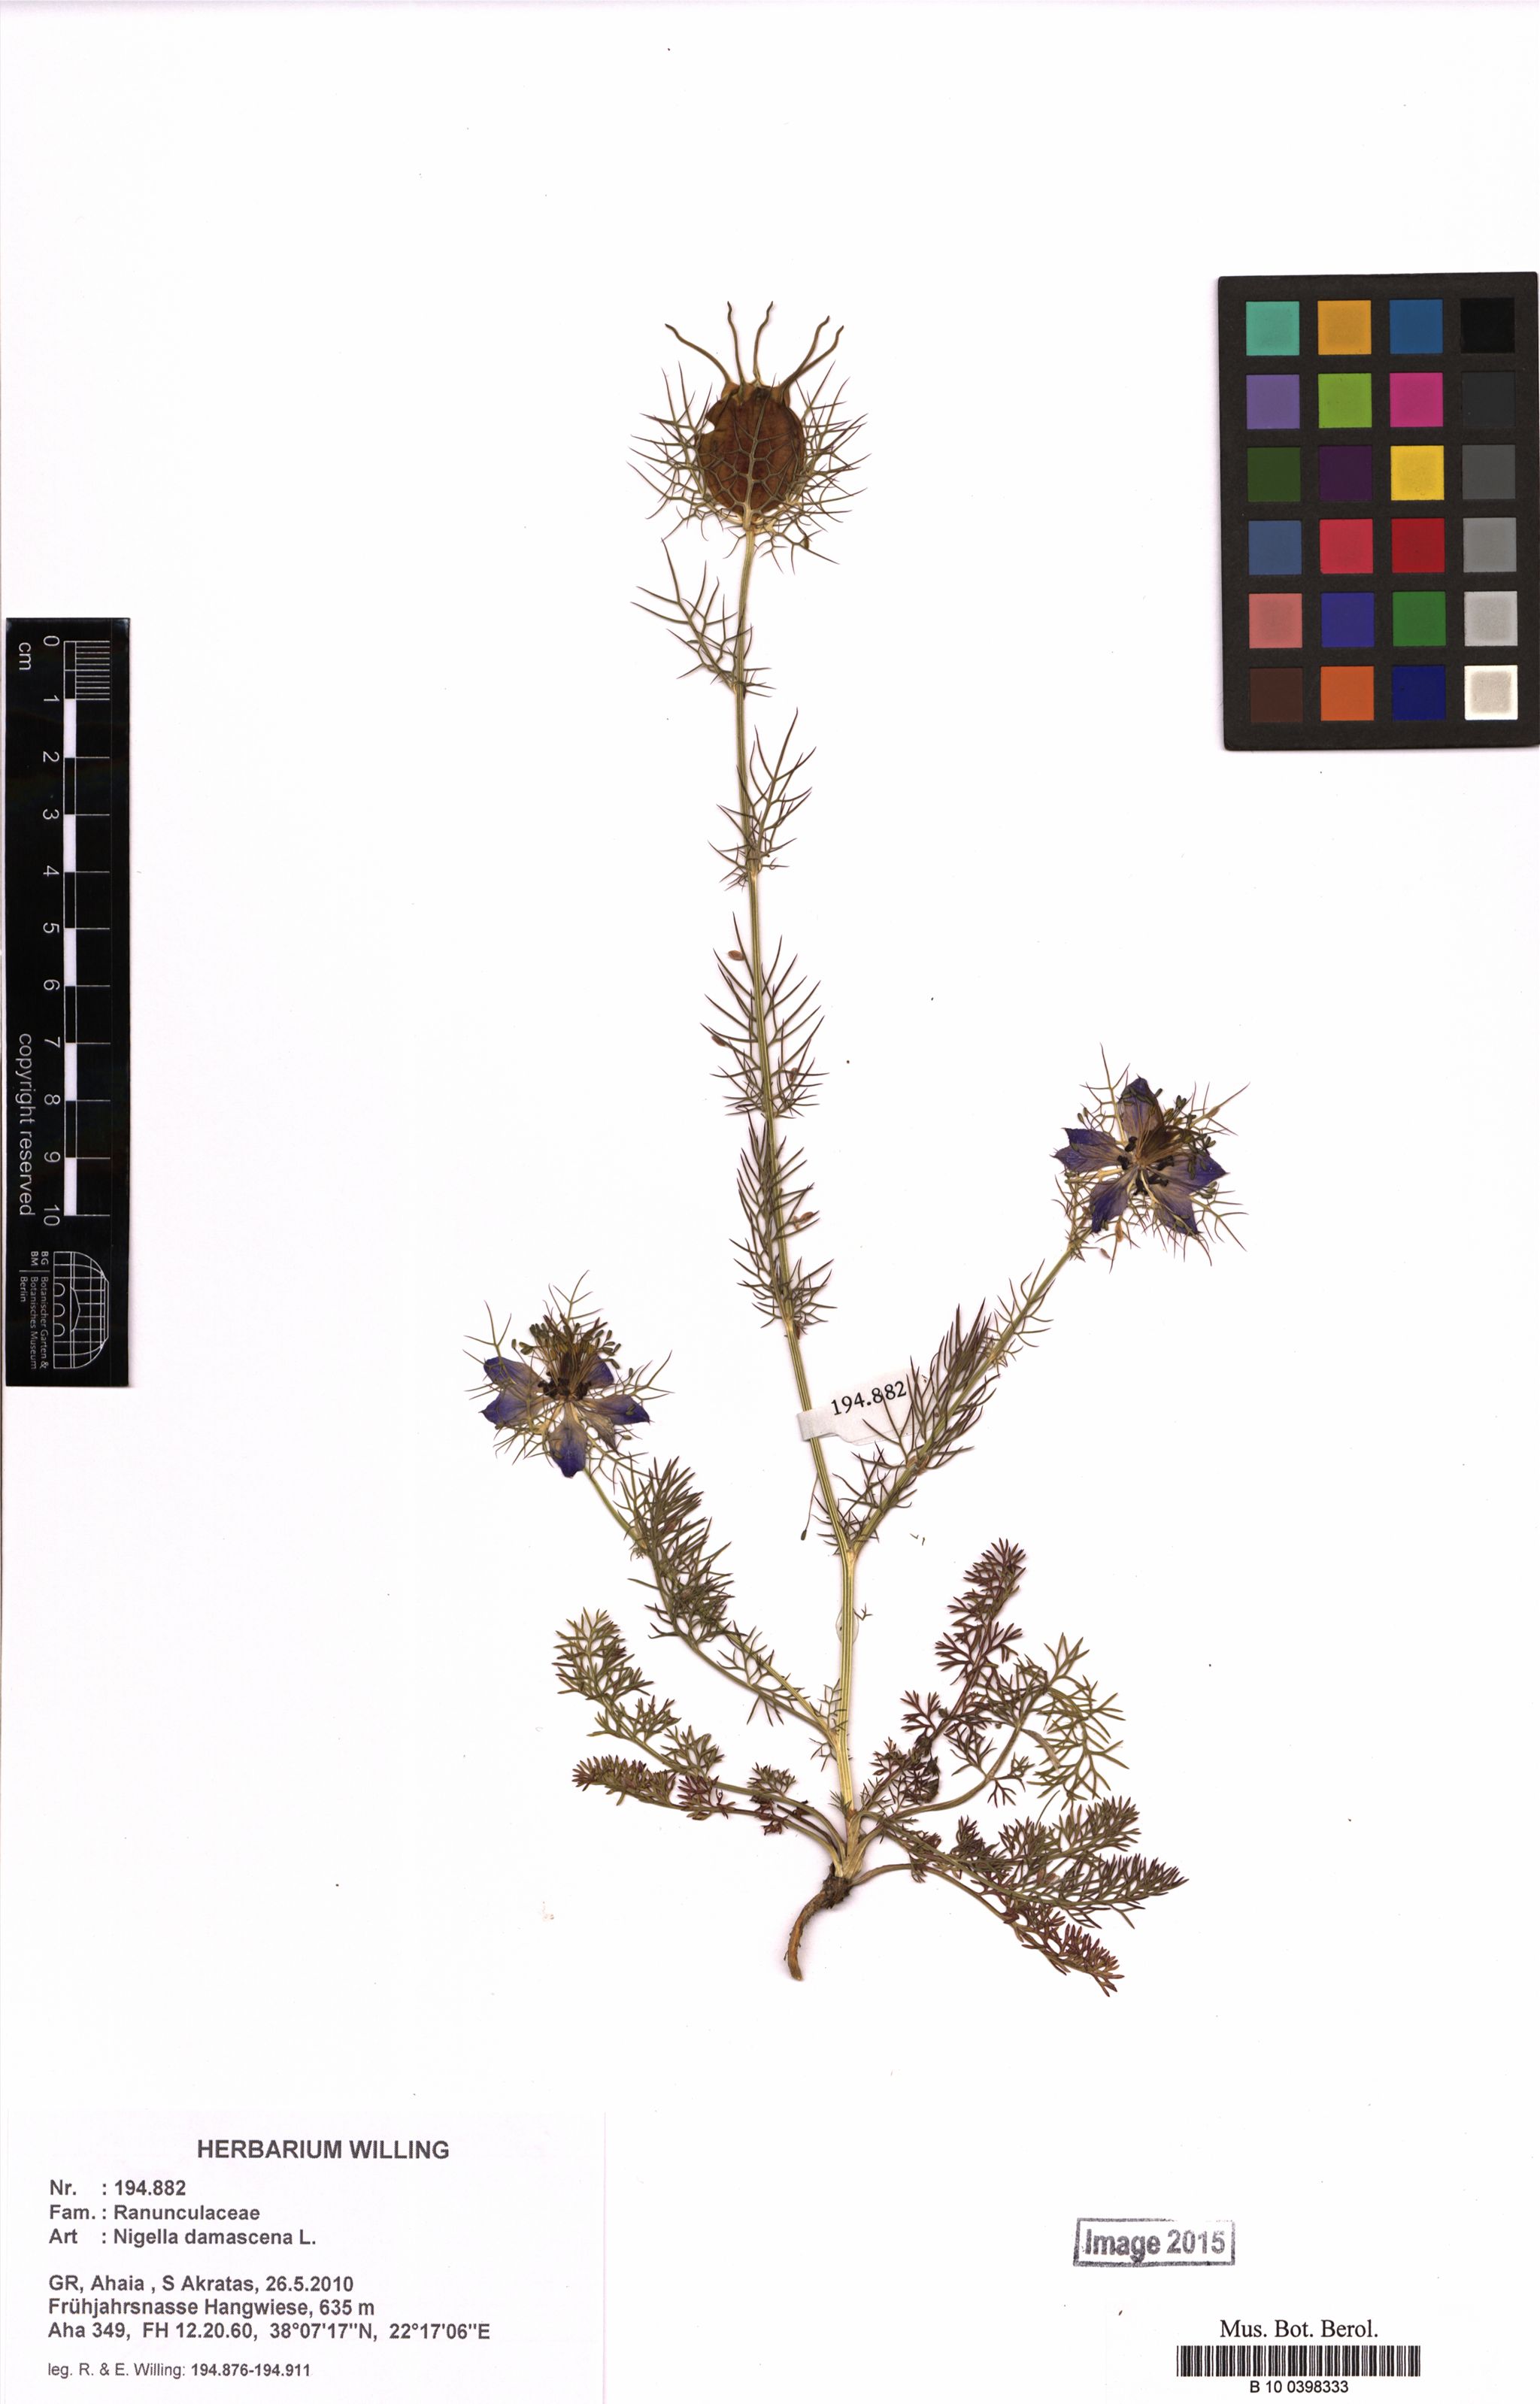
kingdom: Plantae
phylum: Tracheophyta
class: Magnoliopsida
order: Ranunculales
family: Ranunculaceae
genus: Nigella
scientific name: Nigella damascena
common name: Love-in-a-mist
